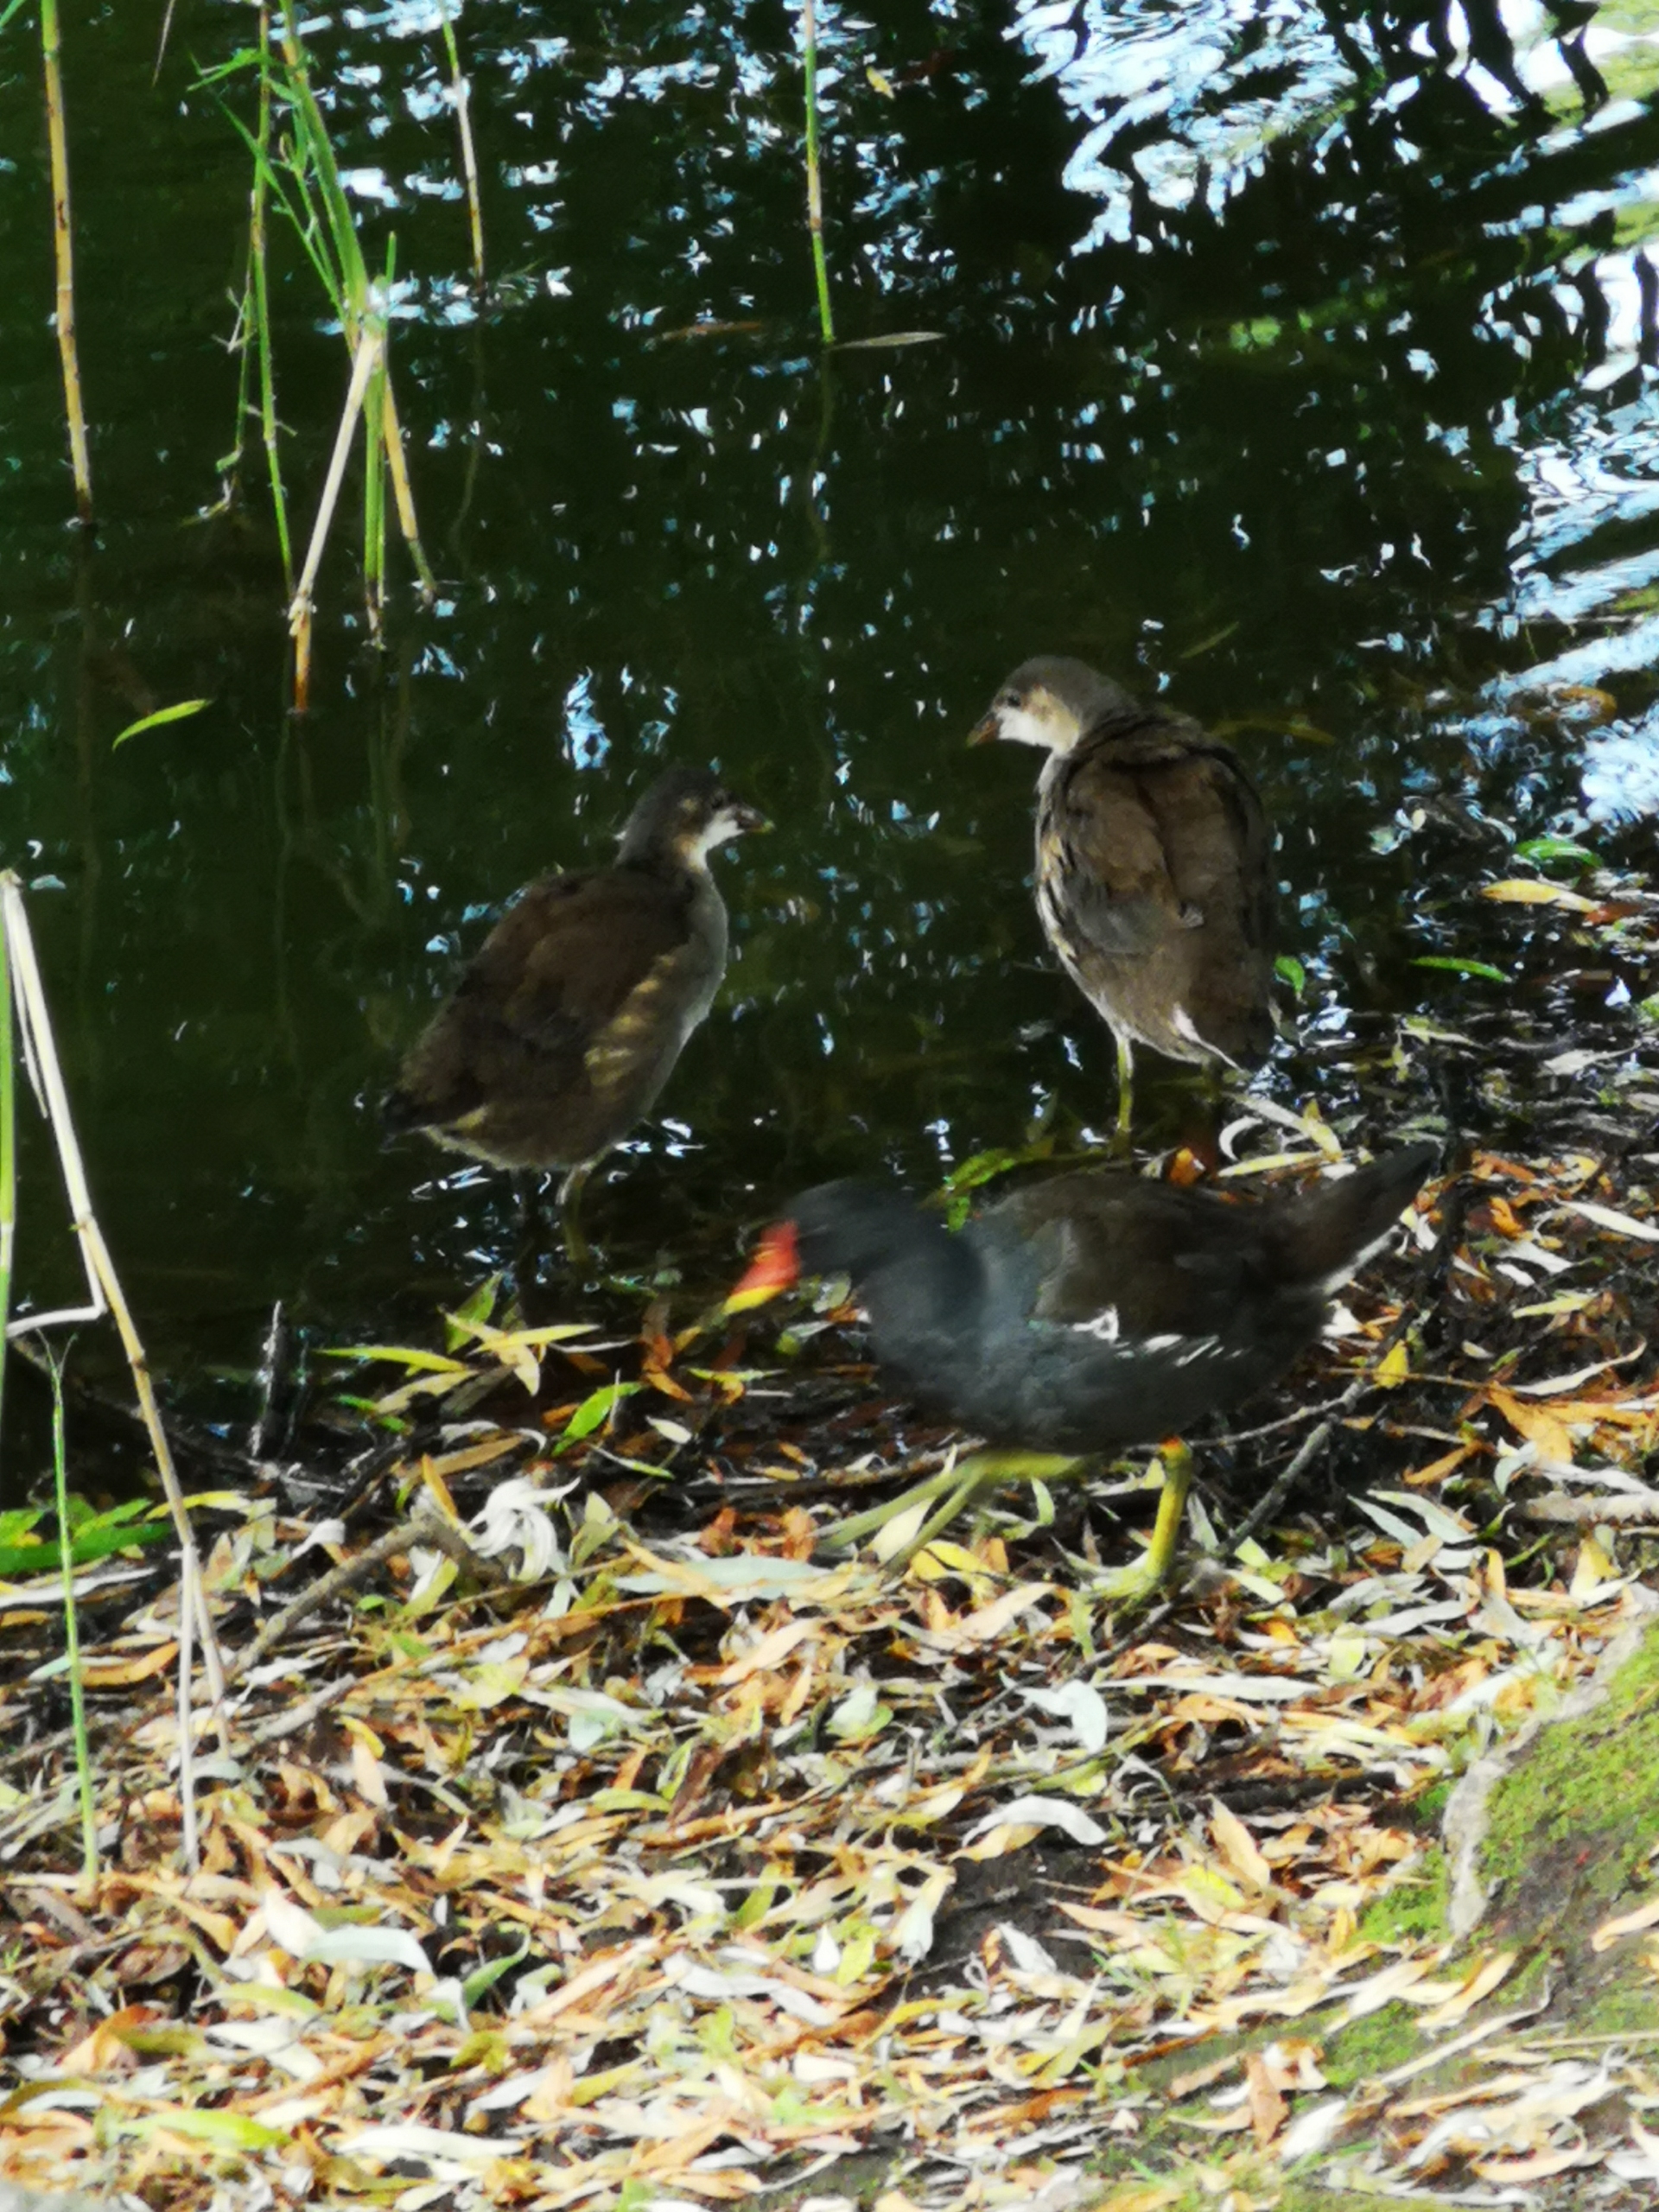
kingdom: Animalia
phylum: Chordata
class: Aves
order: Gruiformes
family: Rallidae
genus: Gallinula
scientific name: Gallinula chloropus
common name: Grønbenet rørhøne
